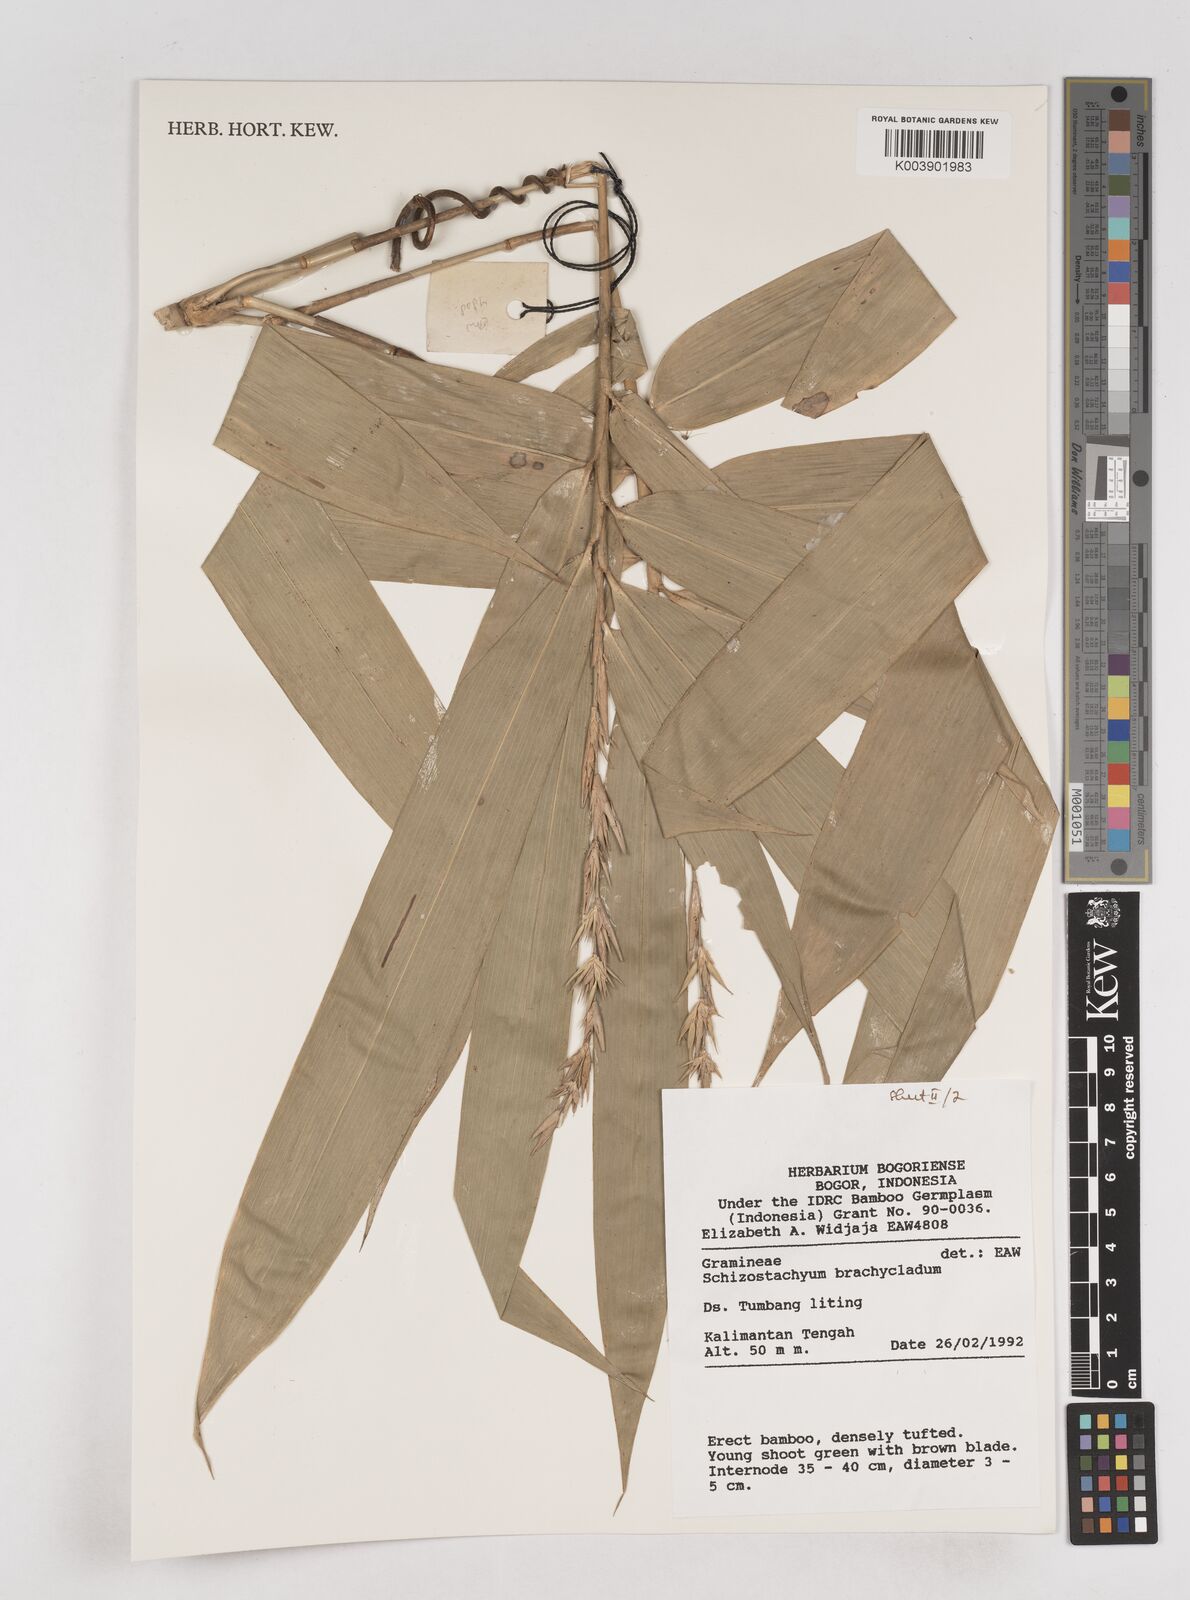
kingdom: Plantae
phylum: Tracheophyta
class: Liliopsida
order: Poales
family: Poaceae
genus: Schizostachyum
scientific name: Schizostachyum brachycladum
